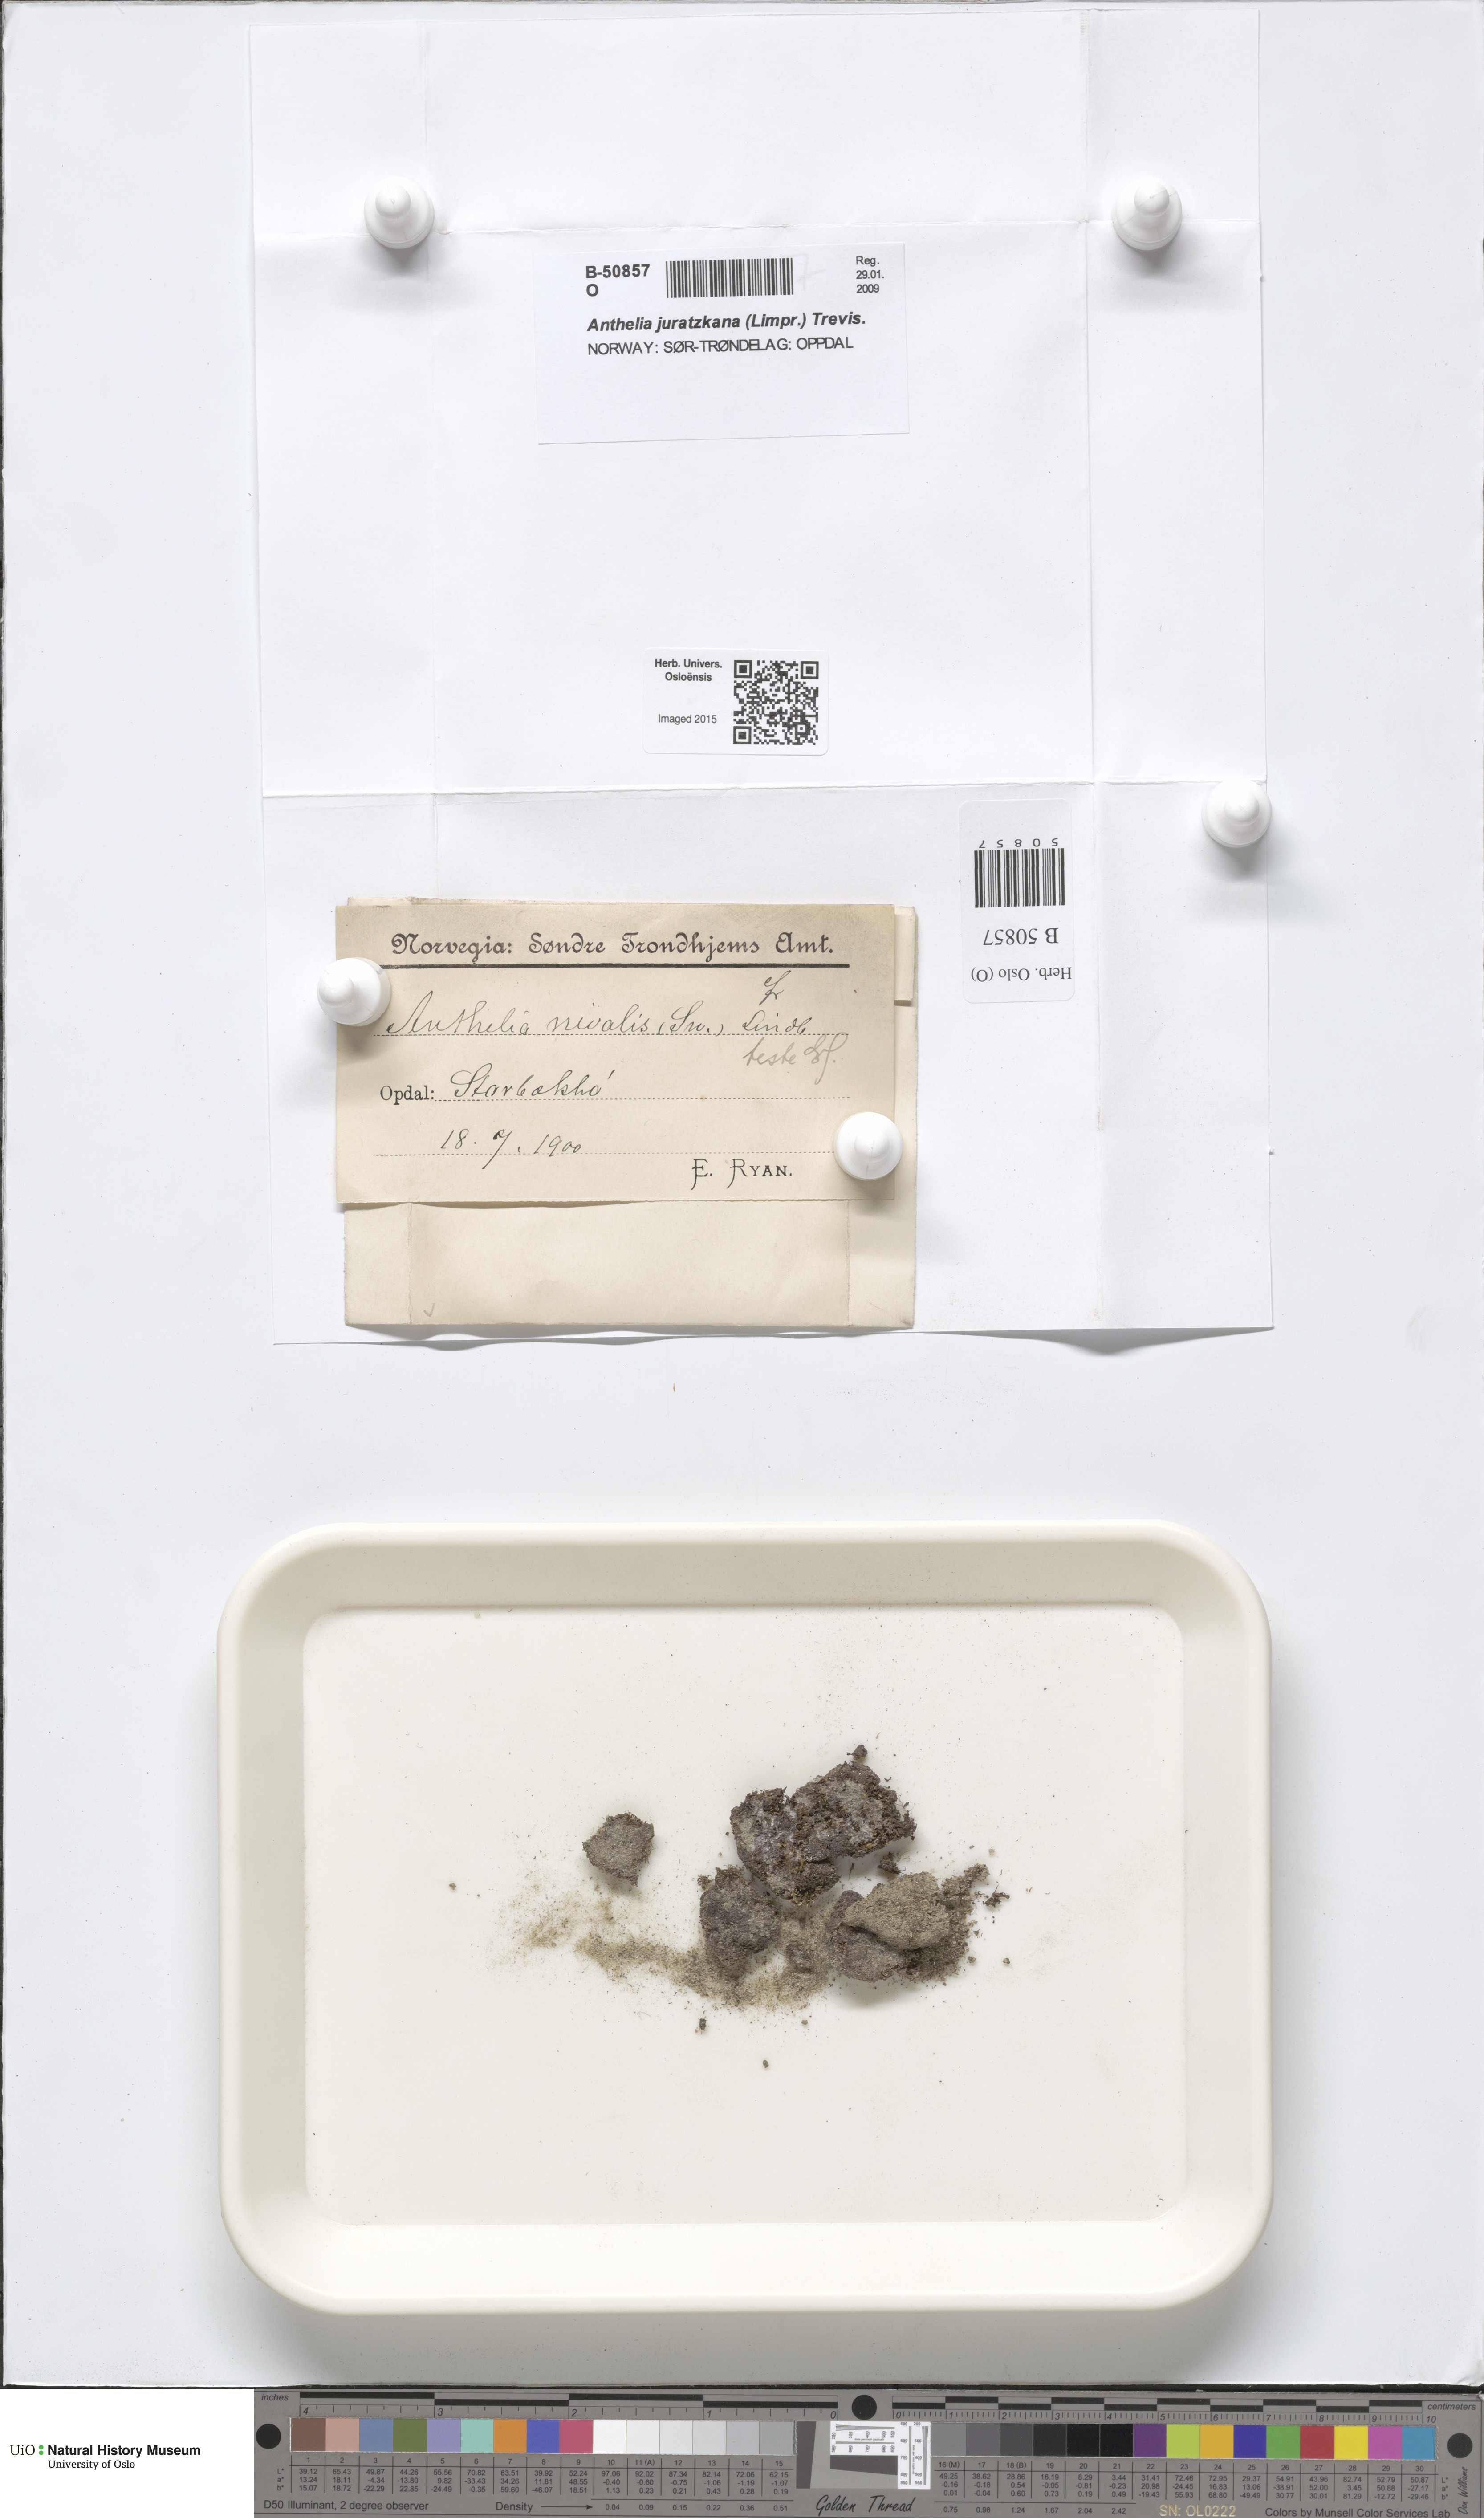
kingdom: Plantae
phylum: Marchantiophyta
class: Jungermanniopsida
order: Jungermanniales
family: Antheliaceae
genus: Anthelia
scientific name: Anthelia juratzkana
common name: Juratzka s silverwort
